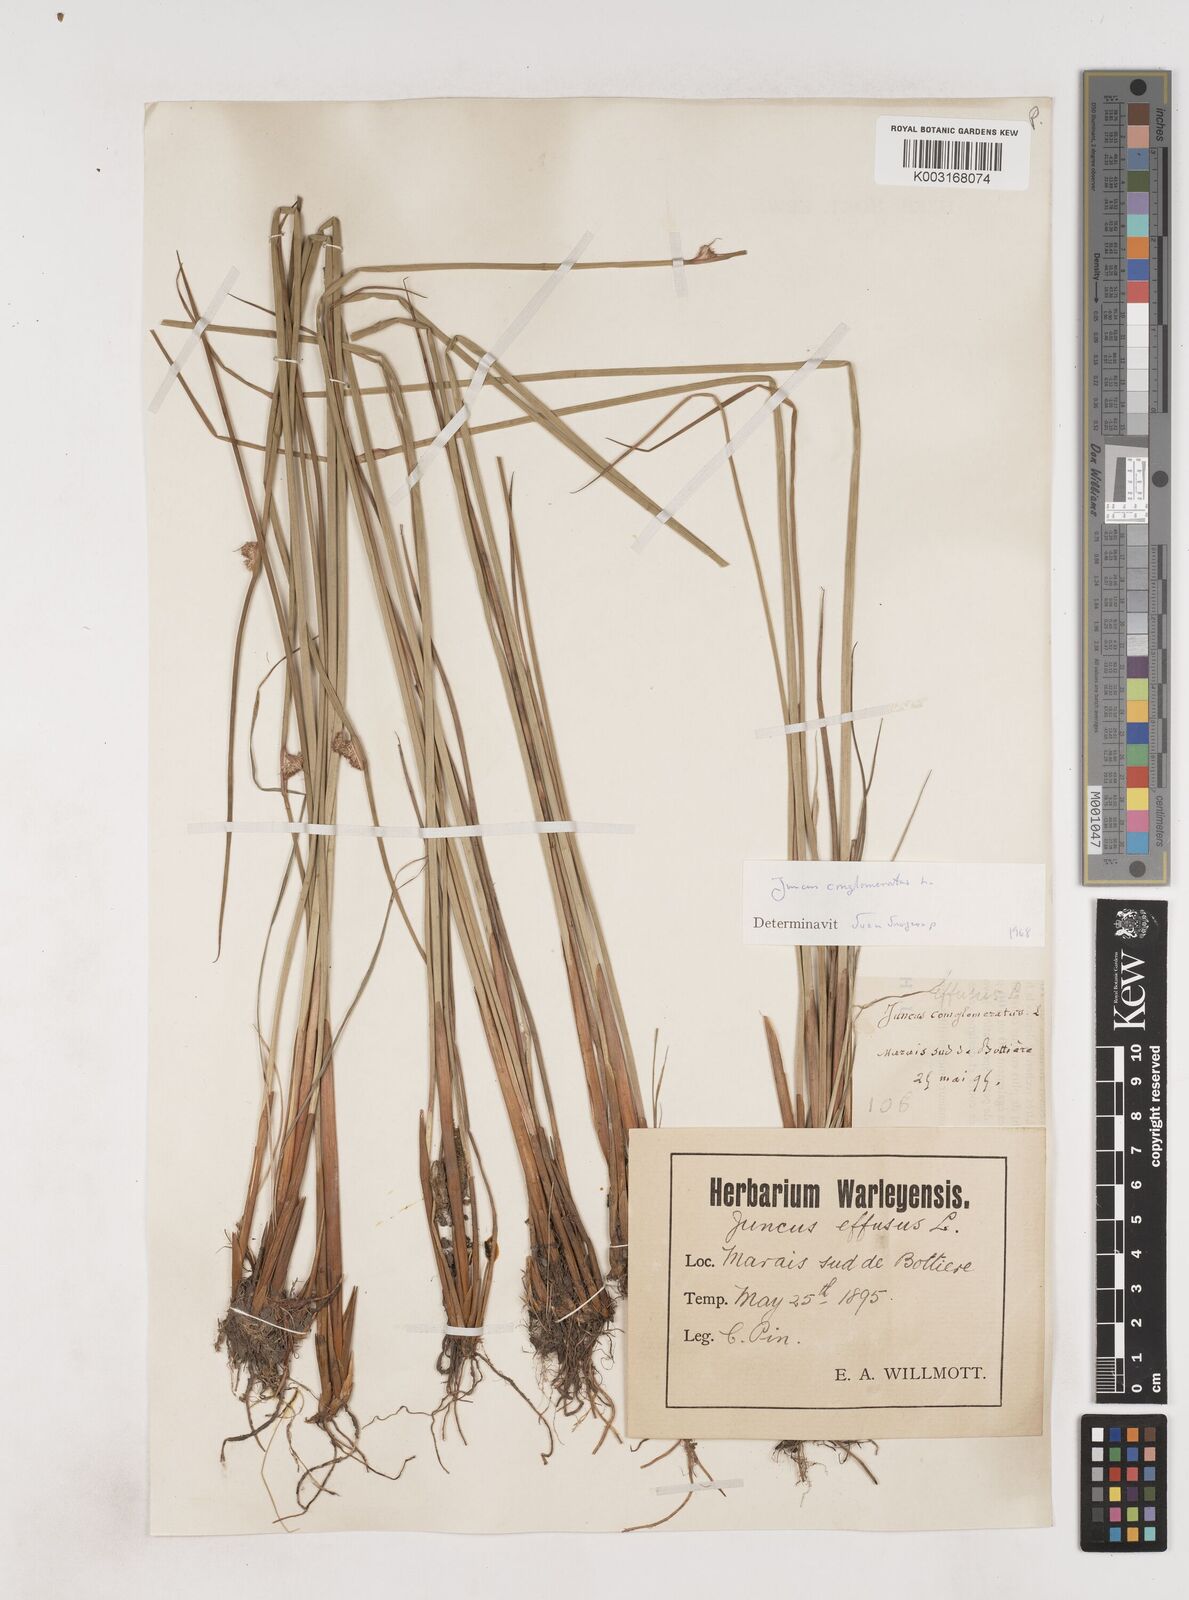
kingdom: Plantae
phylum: Tracheophyta
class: Liliopsida
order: Poales
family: Juncaceae
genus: Juncus
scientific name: Juncus conglomeratus
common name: Compact rush
